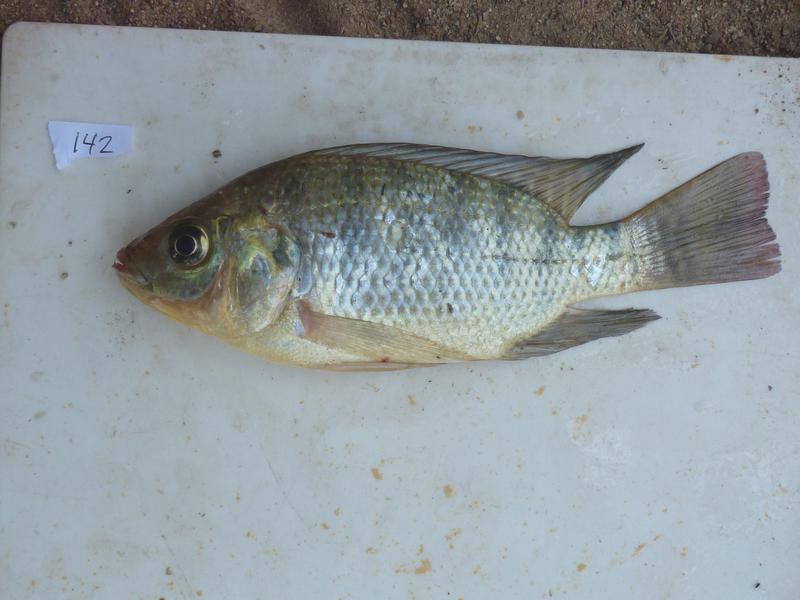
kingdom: Animalia
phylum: Chordata
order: Perciformes
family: Cichlidae
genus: Oreochromis
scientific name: Oreochromis
